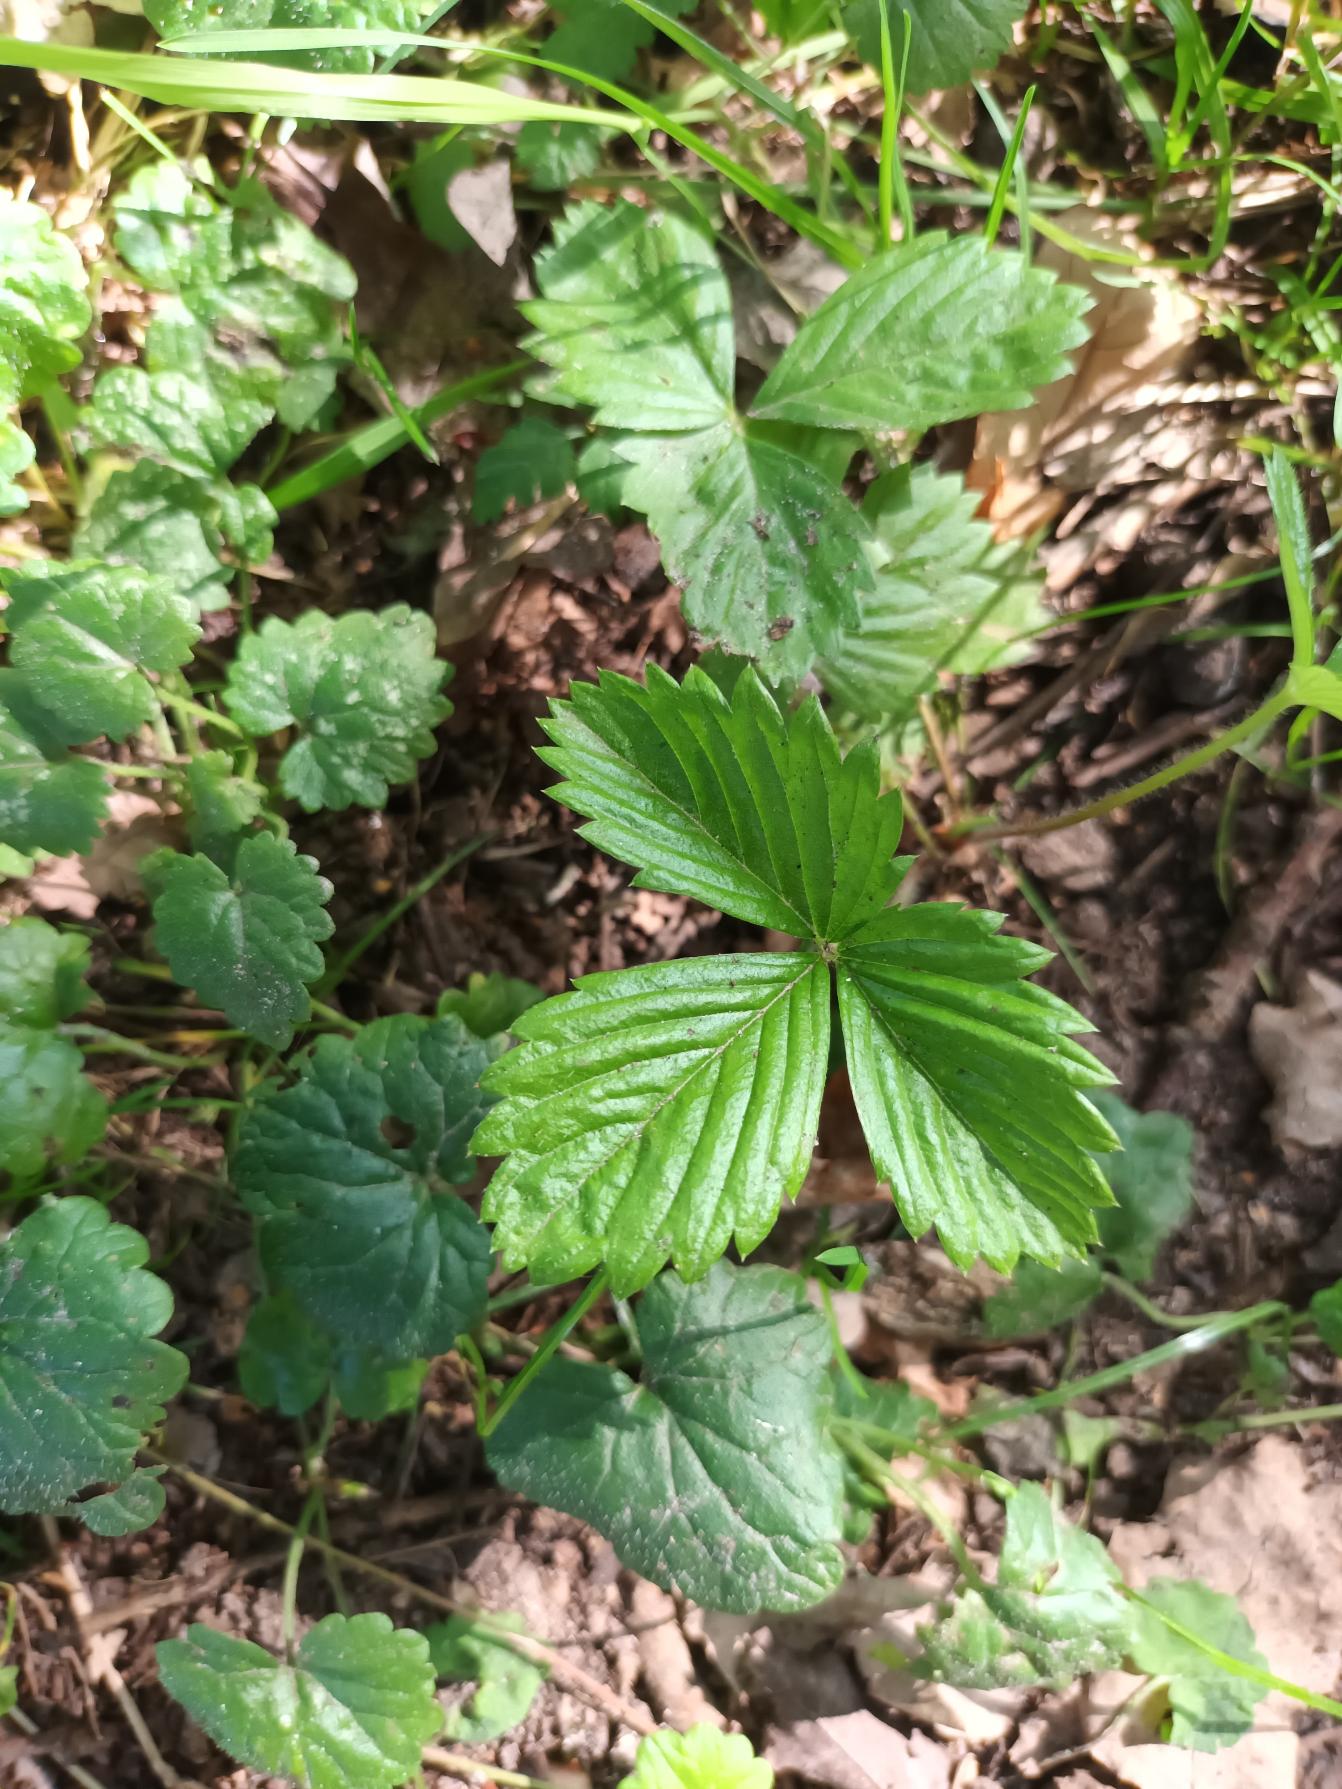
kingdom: Plantae
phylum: Tracheophyta
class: Magnoliopsida
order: Rosales
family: Rosaceae
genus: Fragaria
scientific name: Fragaria vesca
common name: Skov-jordbær
